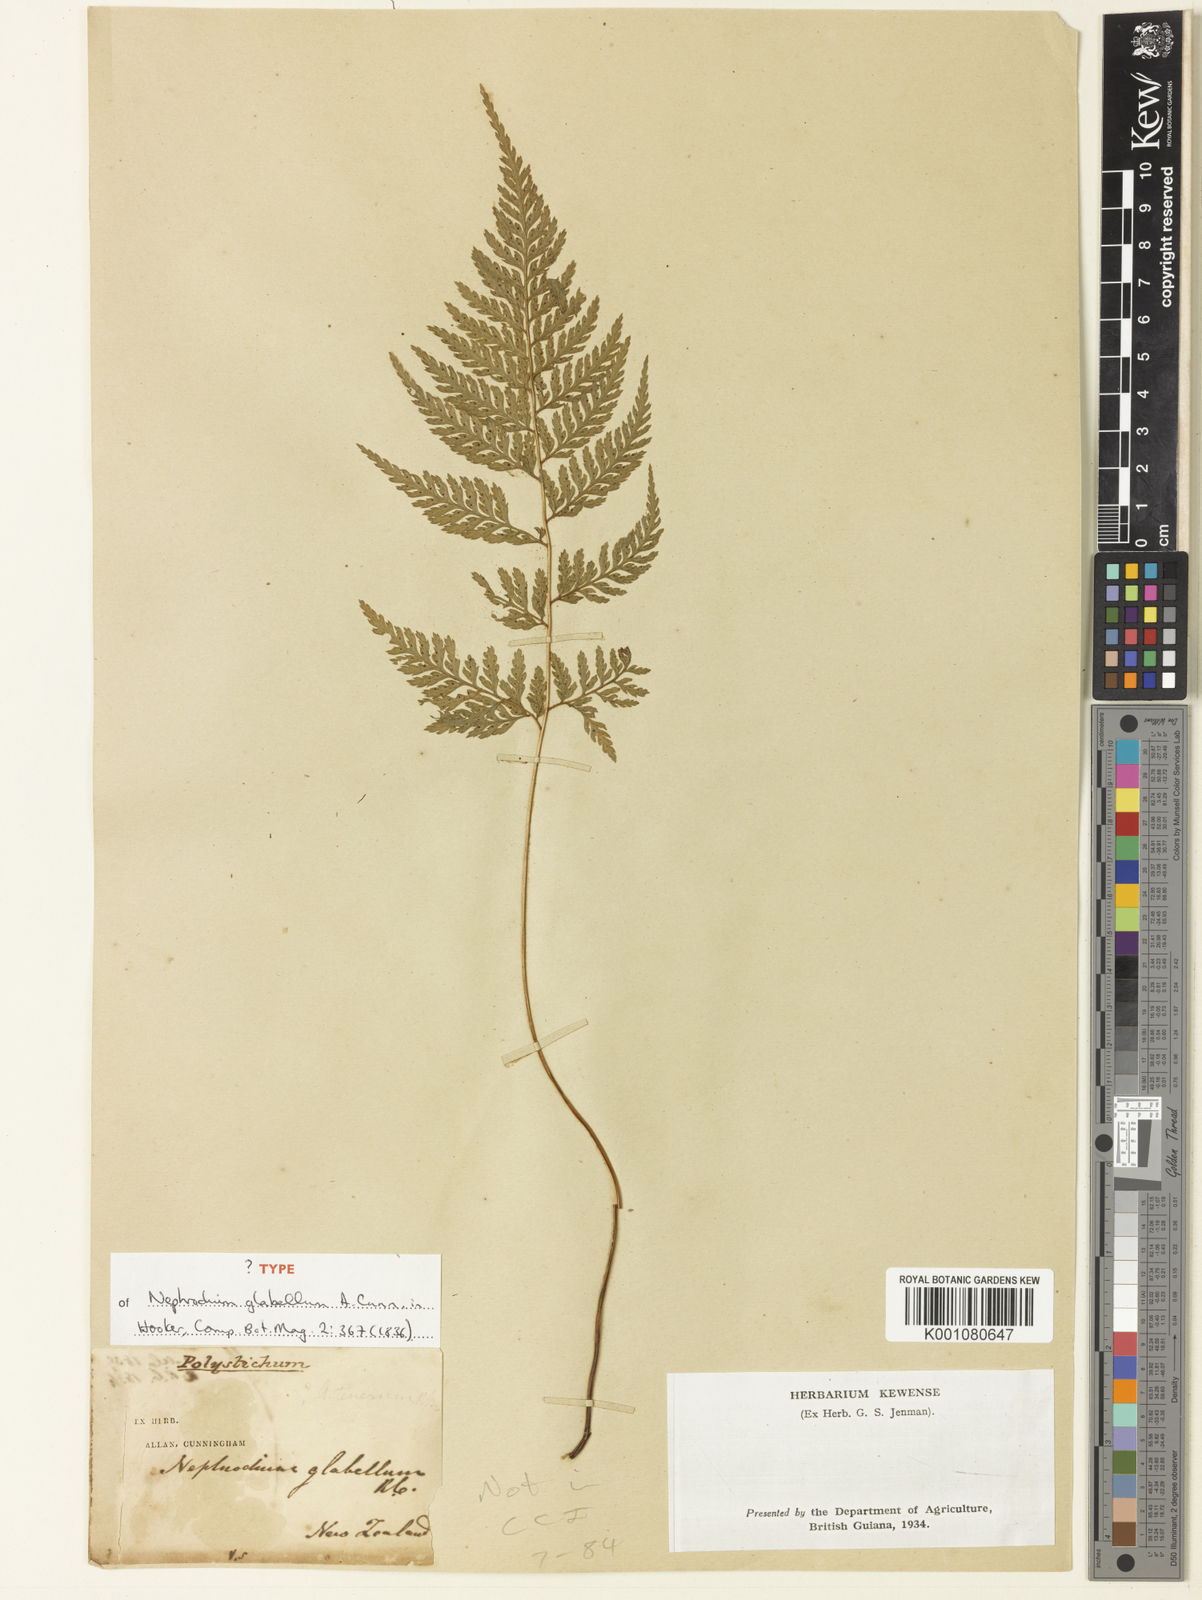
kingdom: Plantae
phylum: Tracheophyta
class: Polypodiopsida
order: Polypodiales
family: Dryopteridaceae
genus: Parapolystichum
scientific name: Parapolystichum glabellum
